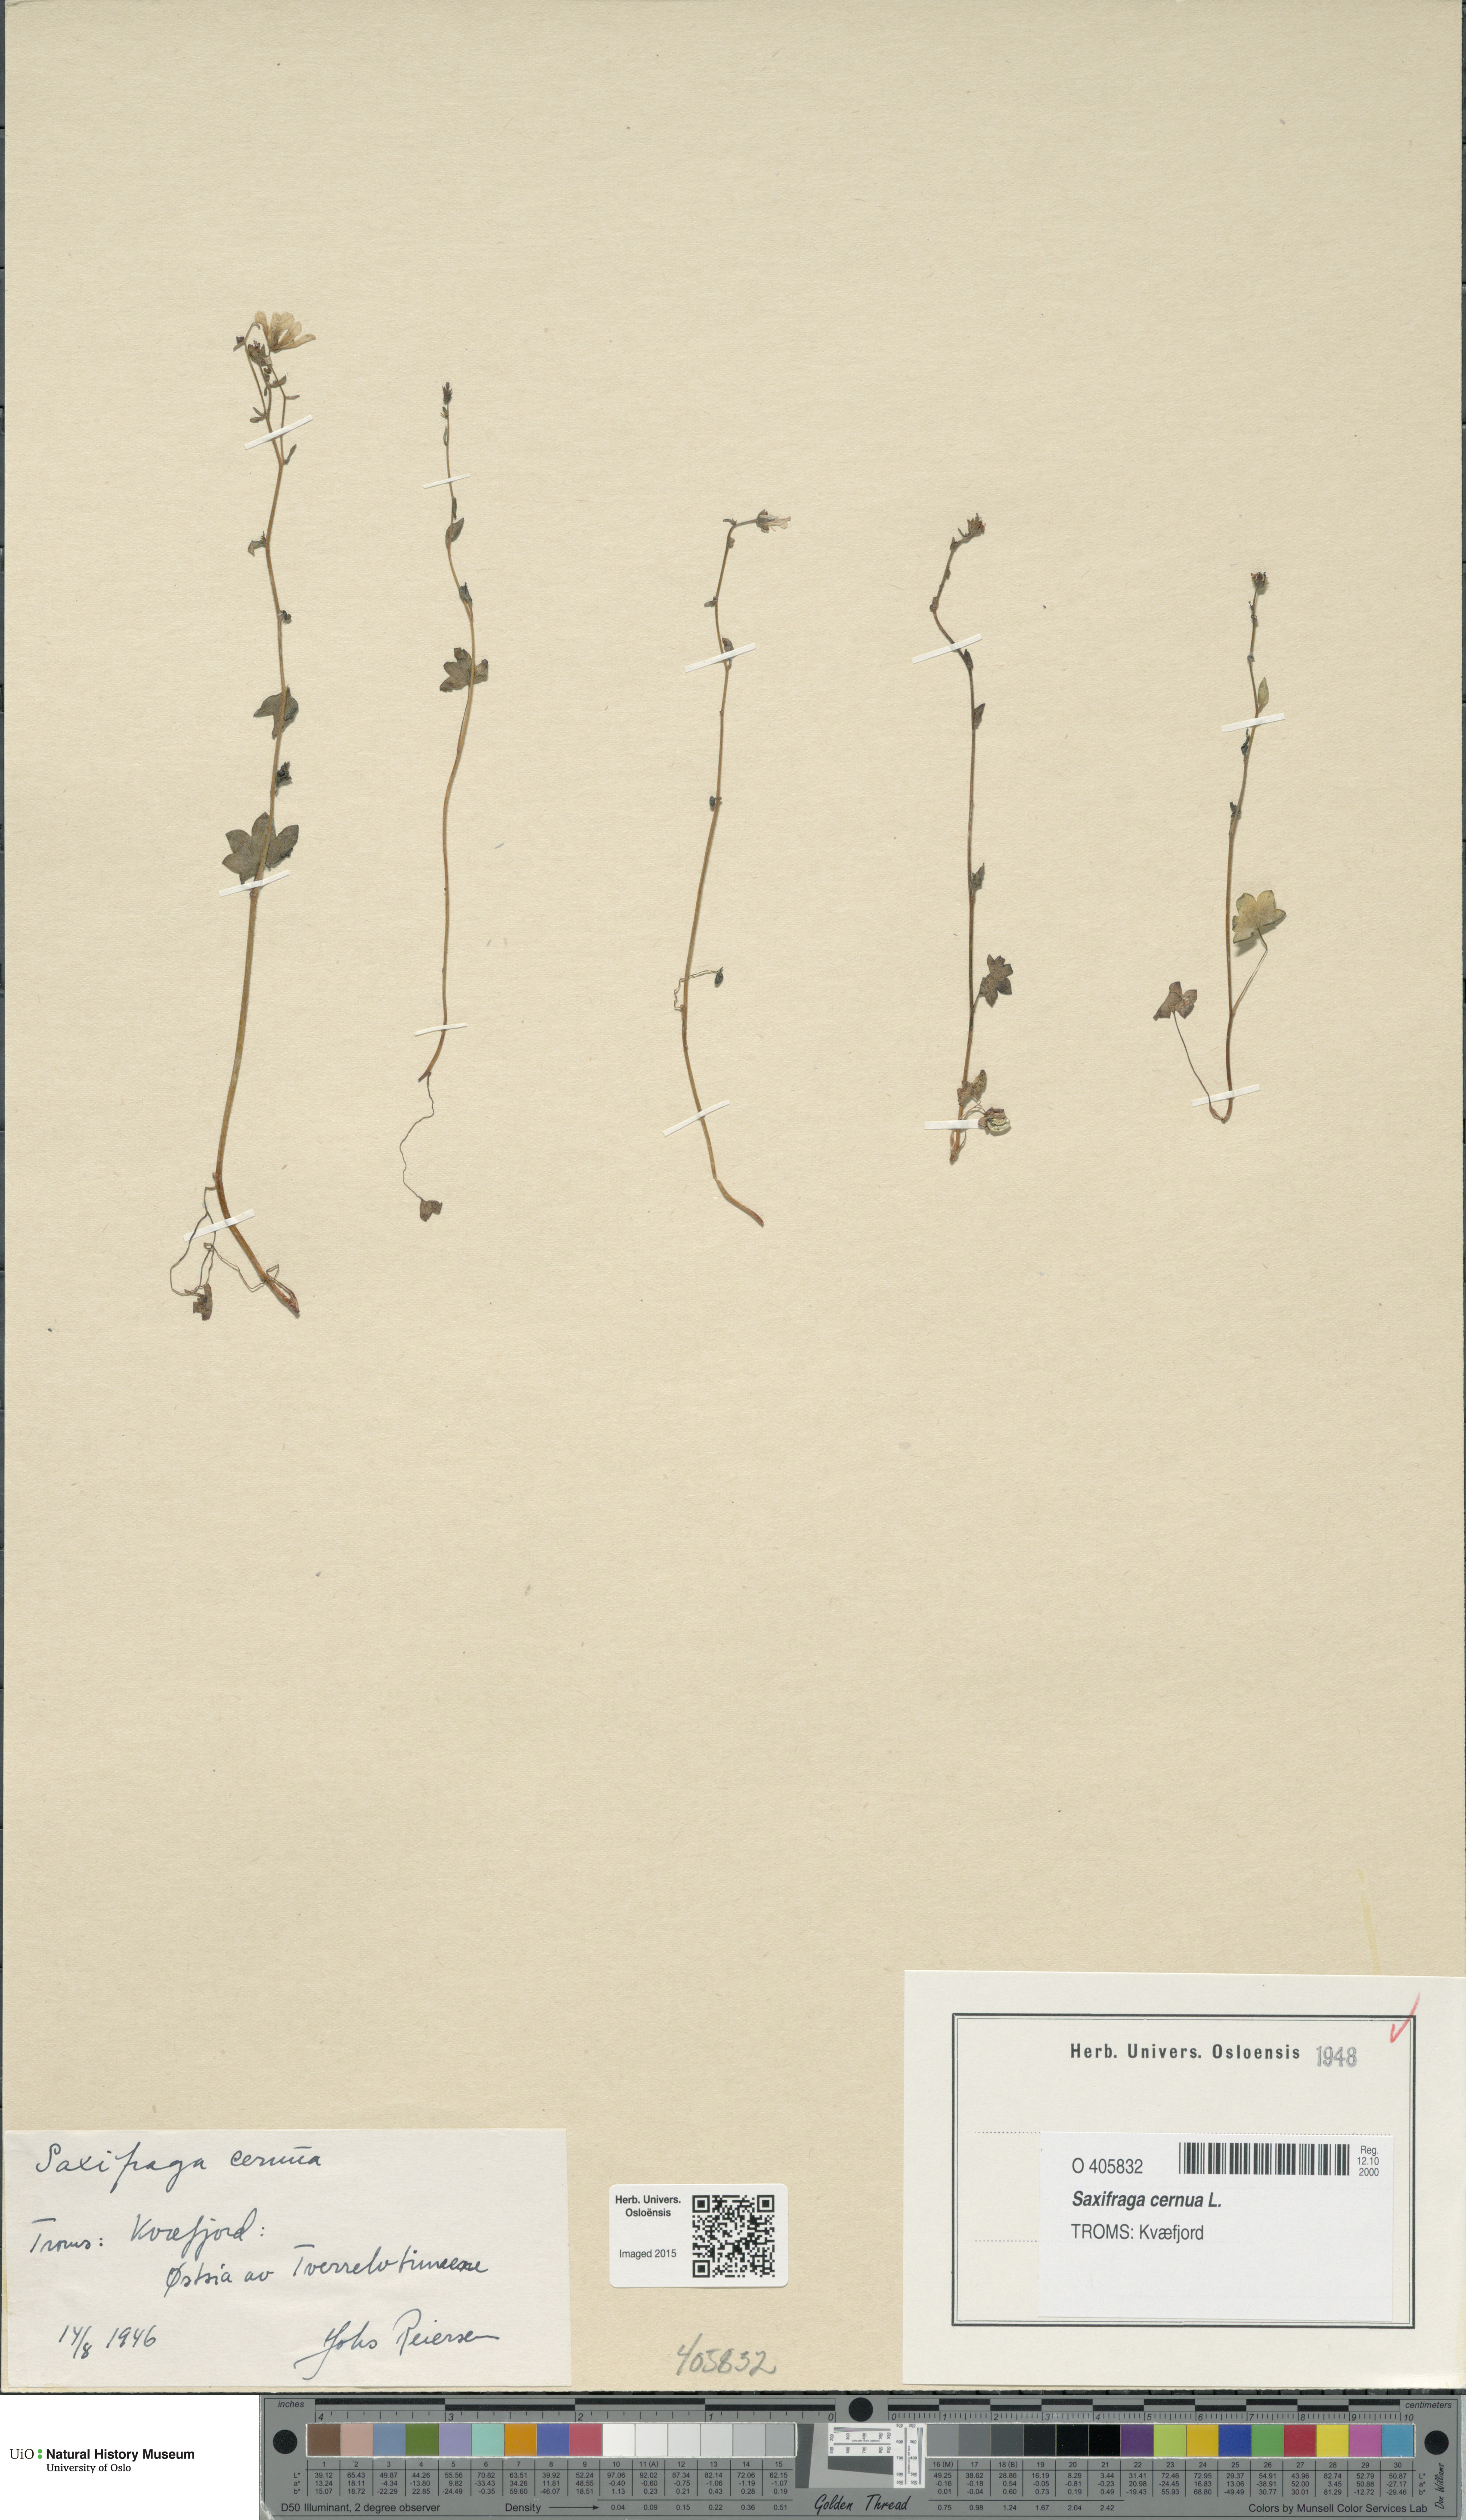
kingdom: Plantae
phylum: Tracheophyta
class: Magnoliopsida
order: Saxifragales
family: Saxifragaceae
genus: Saxifraga
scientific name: Saxifraga cernua
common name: Drooping saxifrage
